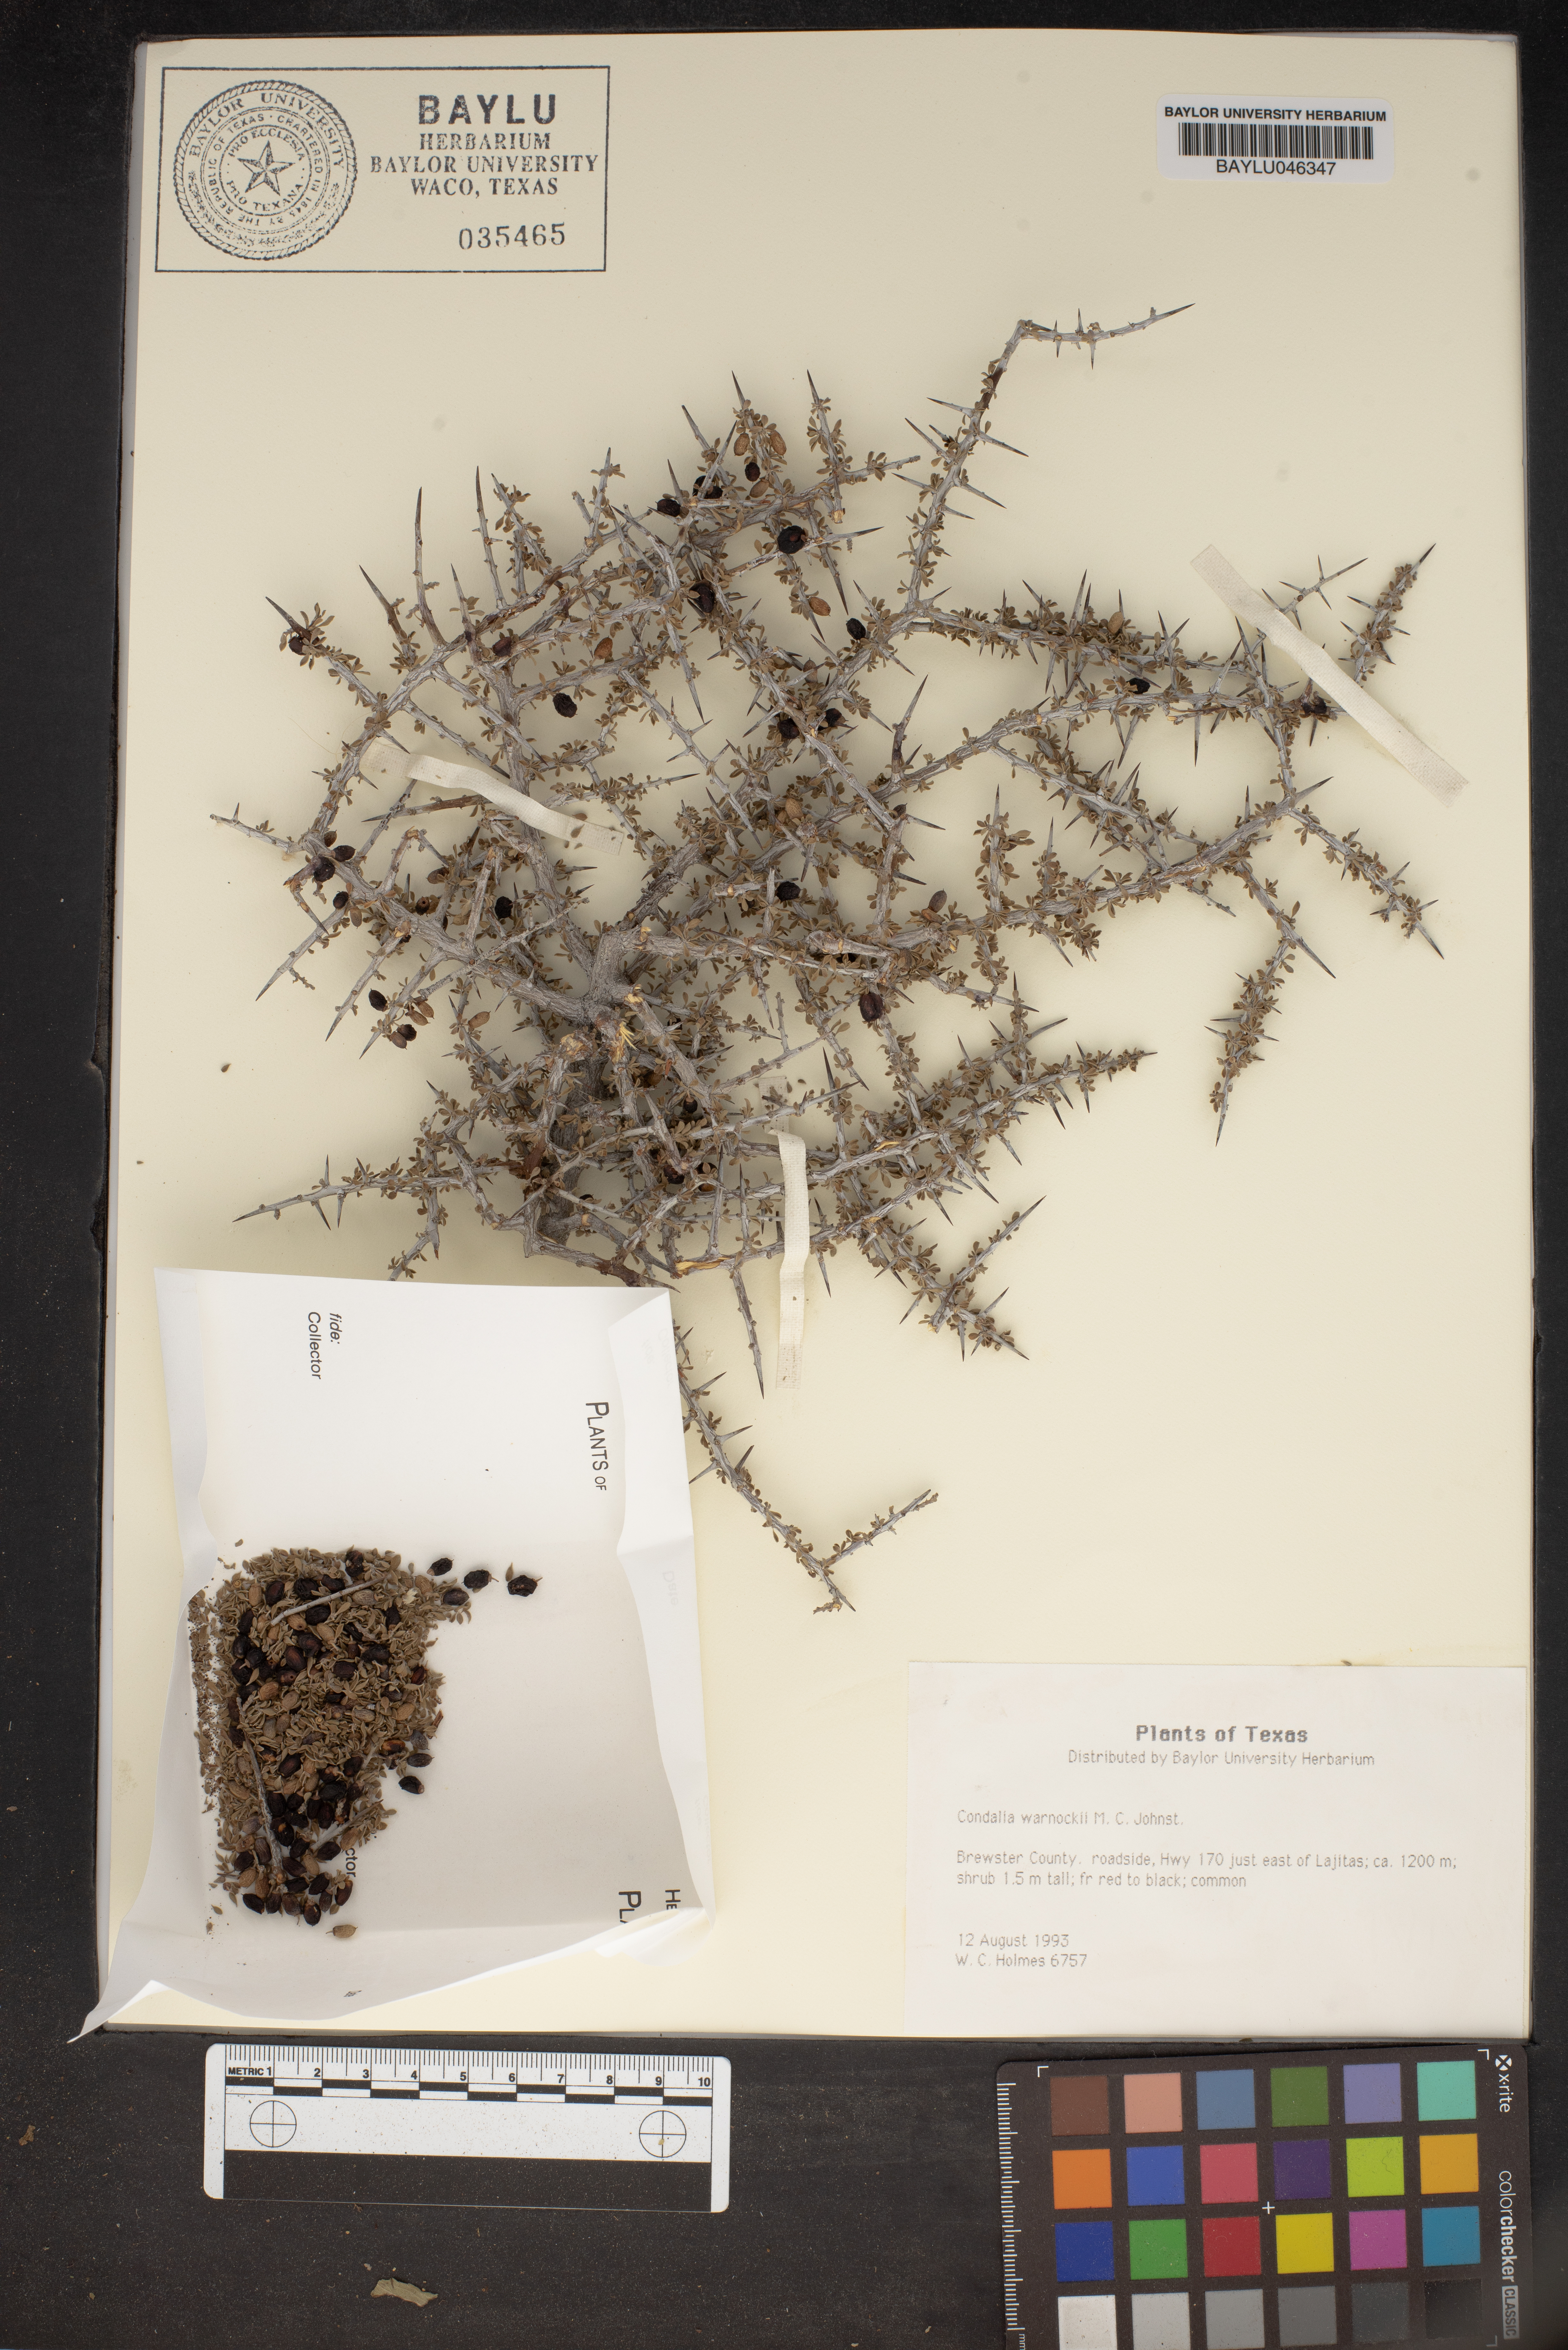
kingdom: Plantae
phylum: Tracheophyta
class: Magnoliopsida
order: Rosales
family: Rhamnaceae
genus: Condalia
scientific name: Condalia warnockii
